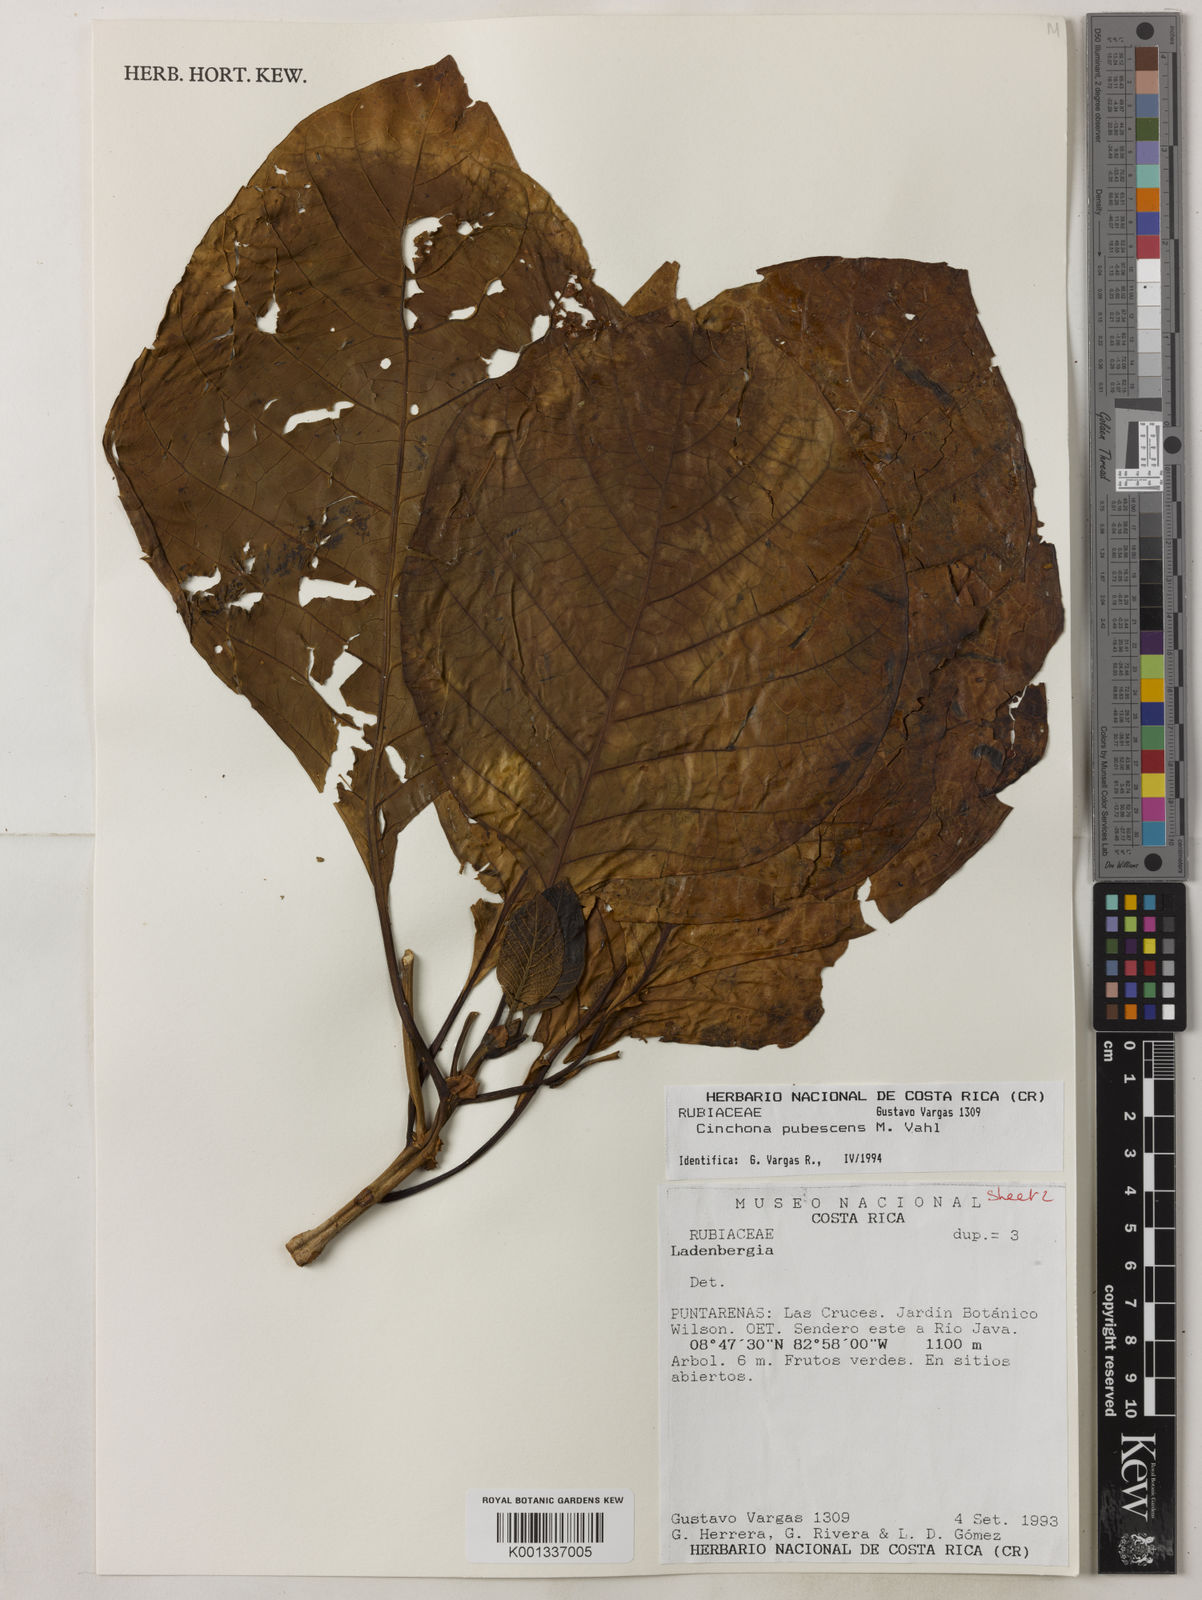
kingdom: Plantae
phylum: Tracheophyta
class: Magnoliopsida
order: Gentianales
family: Rubiaceae
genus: Cinchona
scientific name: Cinchona pubescens
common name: Quinine
